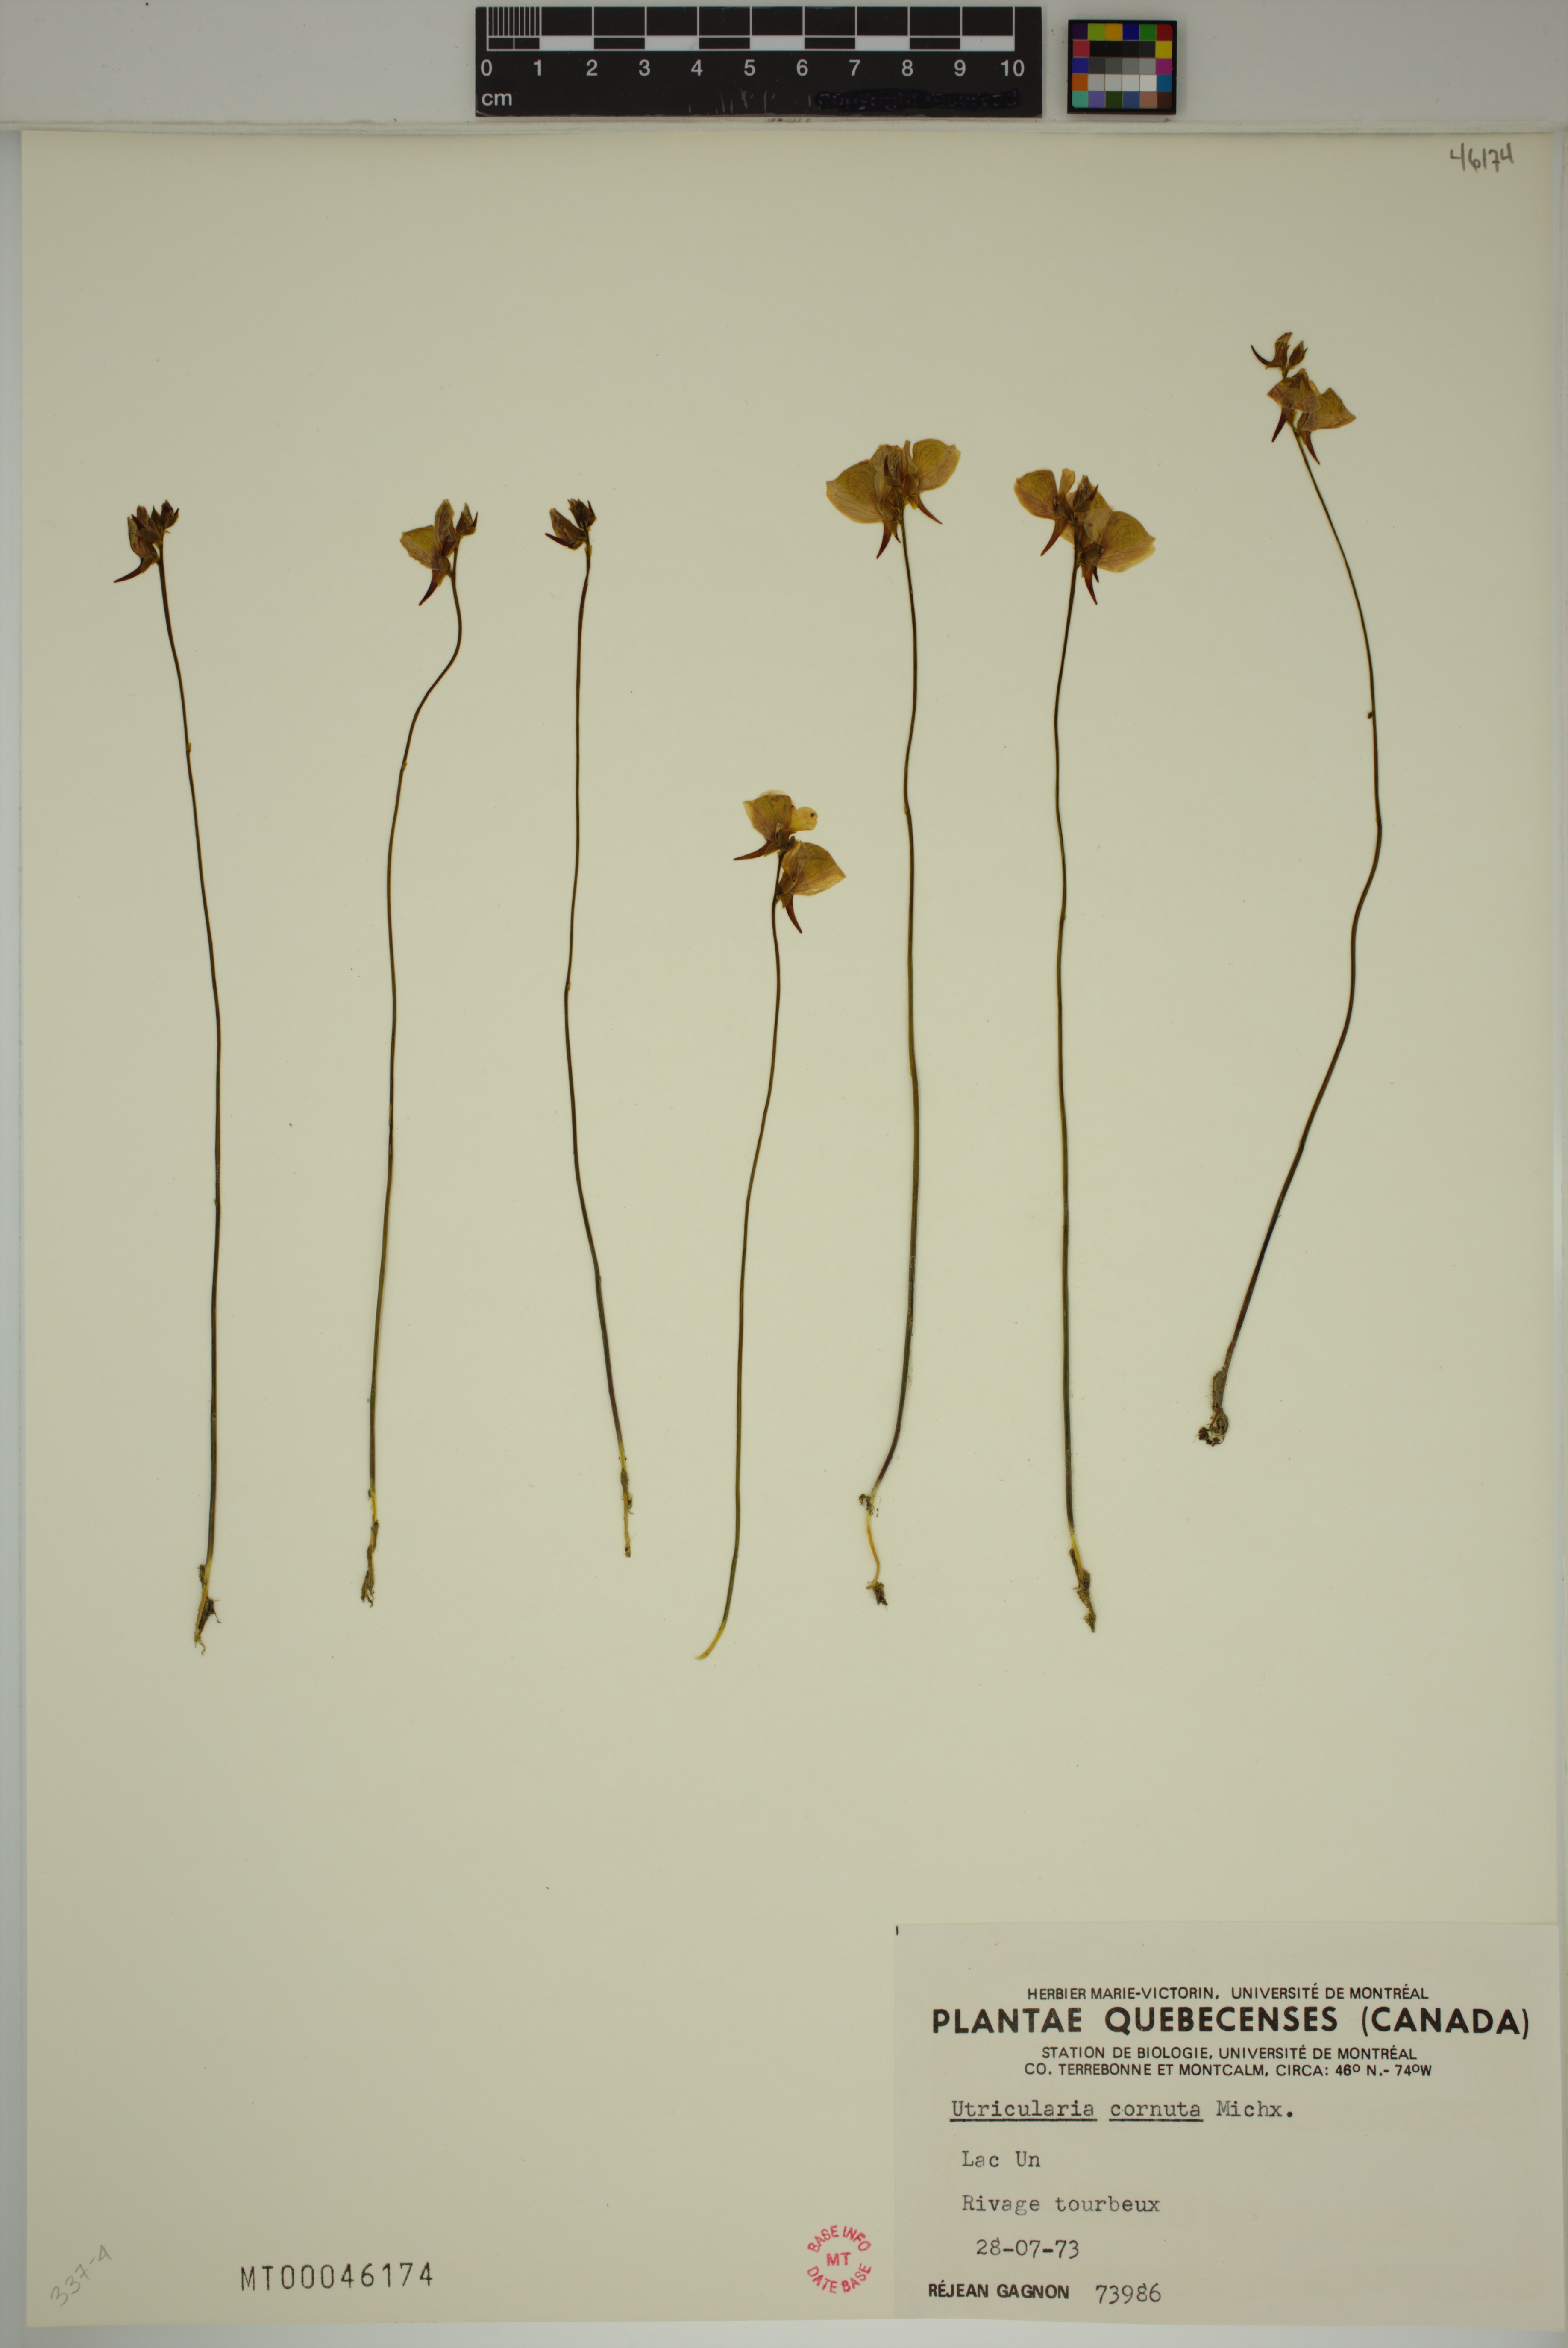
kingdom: Plantae
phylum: Tracheophyta
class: Magnoliopsida
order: Lamiales
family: Lentibulariaceae
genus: Utricularia
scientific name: Utricularia cornuta
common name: Horned bladderwort
